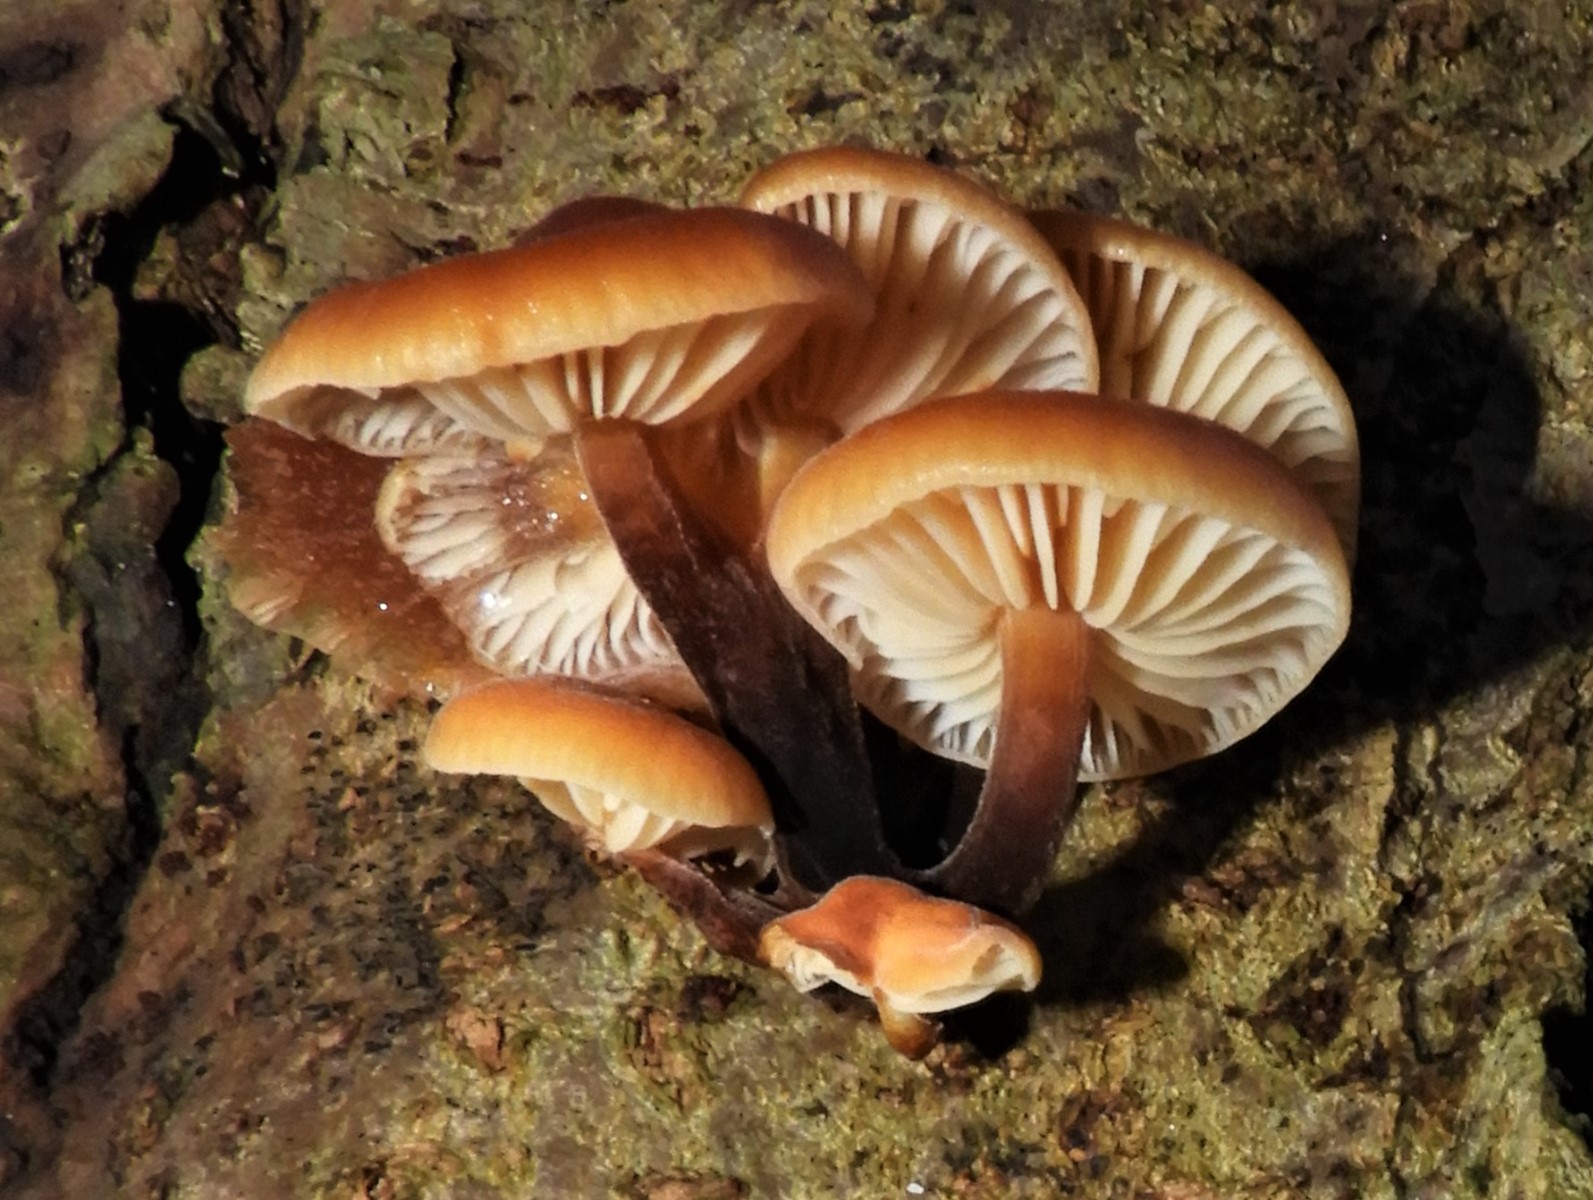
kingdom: Fungi
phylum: Basidiomycota
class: Agaricomycetes
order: Agaricales
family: Physalacriaceae
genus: Flammulina
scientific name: Flammulina velutipes
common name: gul fløjlsfod
